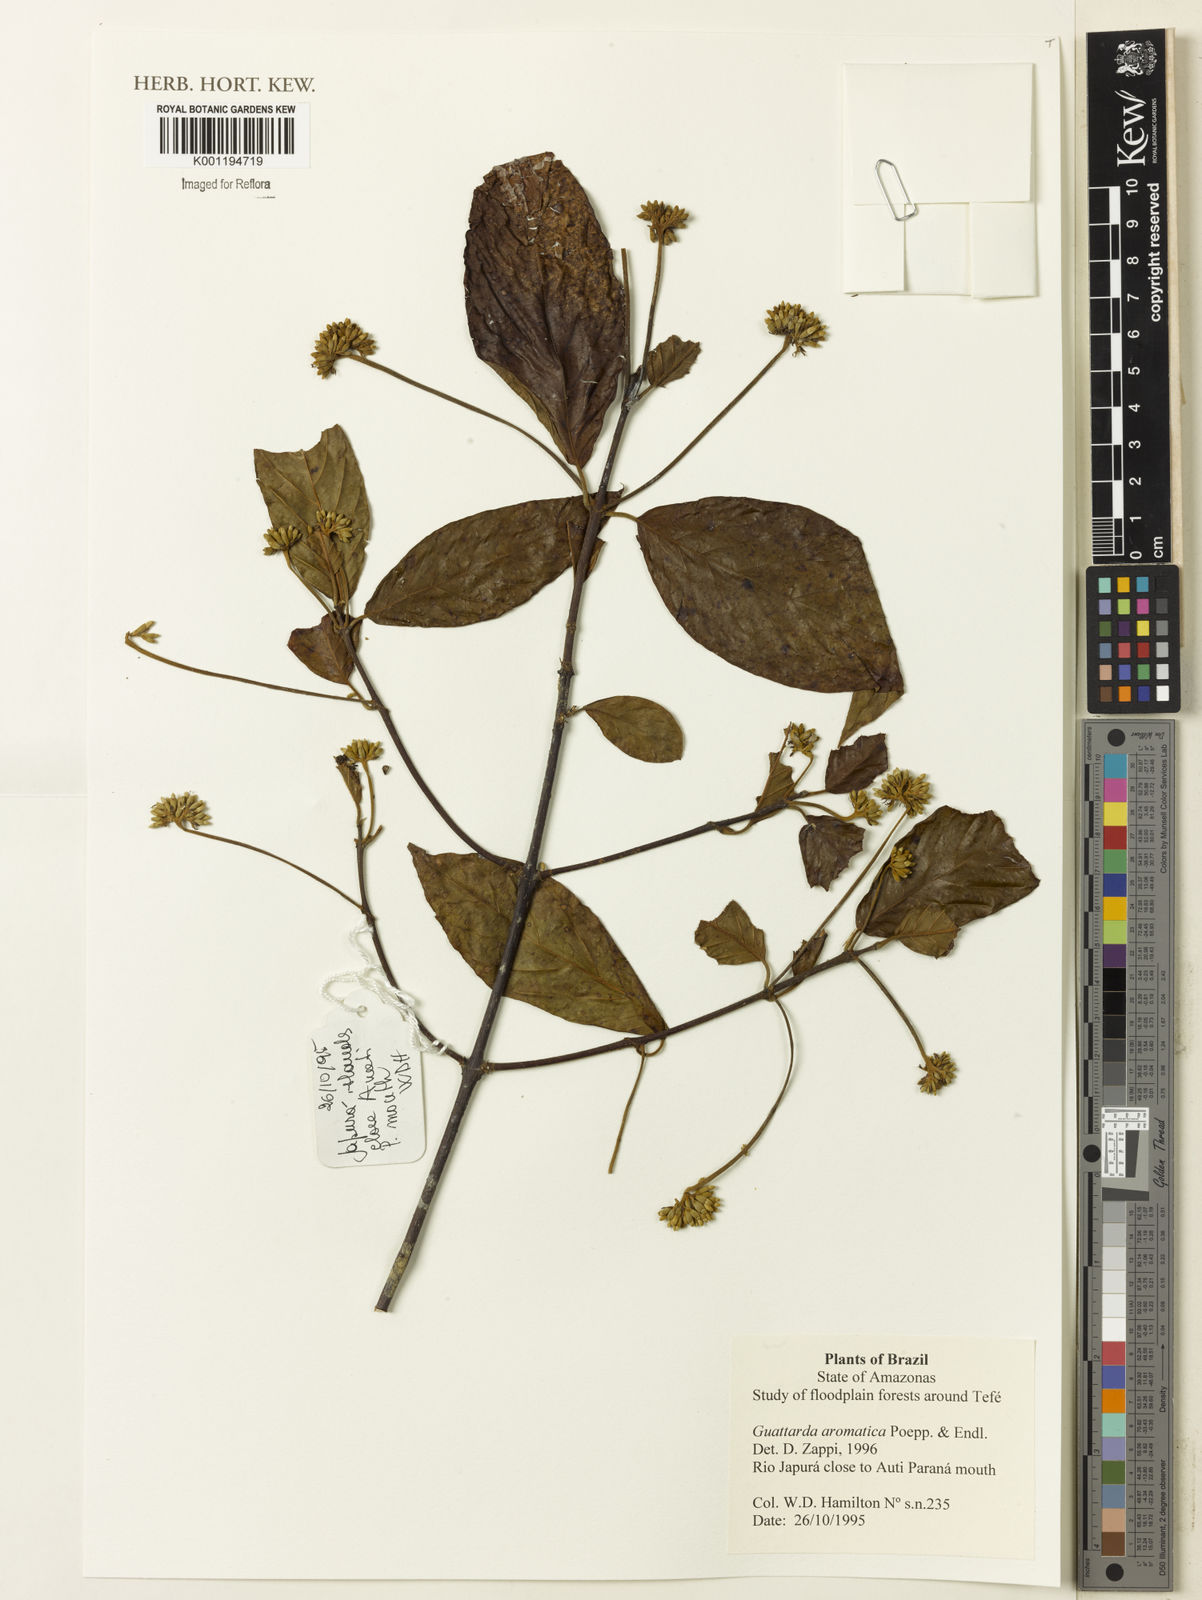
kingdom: Plantae
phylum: Tracheophyta
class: Magnoliopsida
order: Gentianales
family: Rubiaceae
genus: Guettarda
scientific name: Guettarda aromatica
